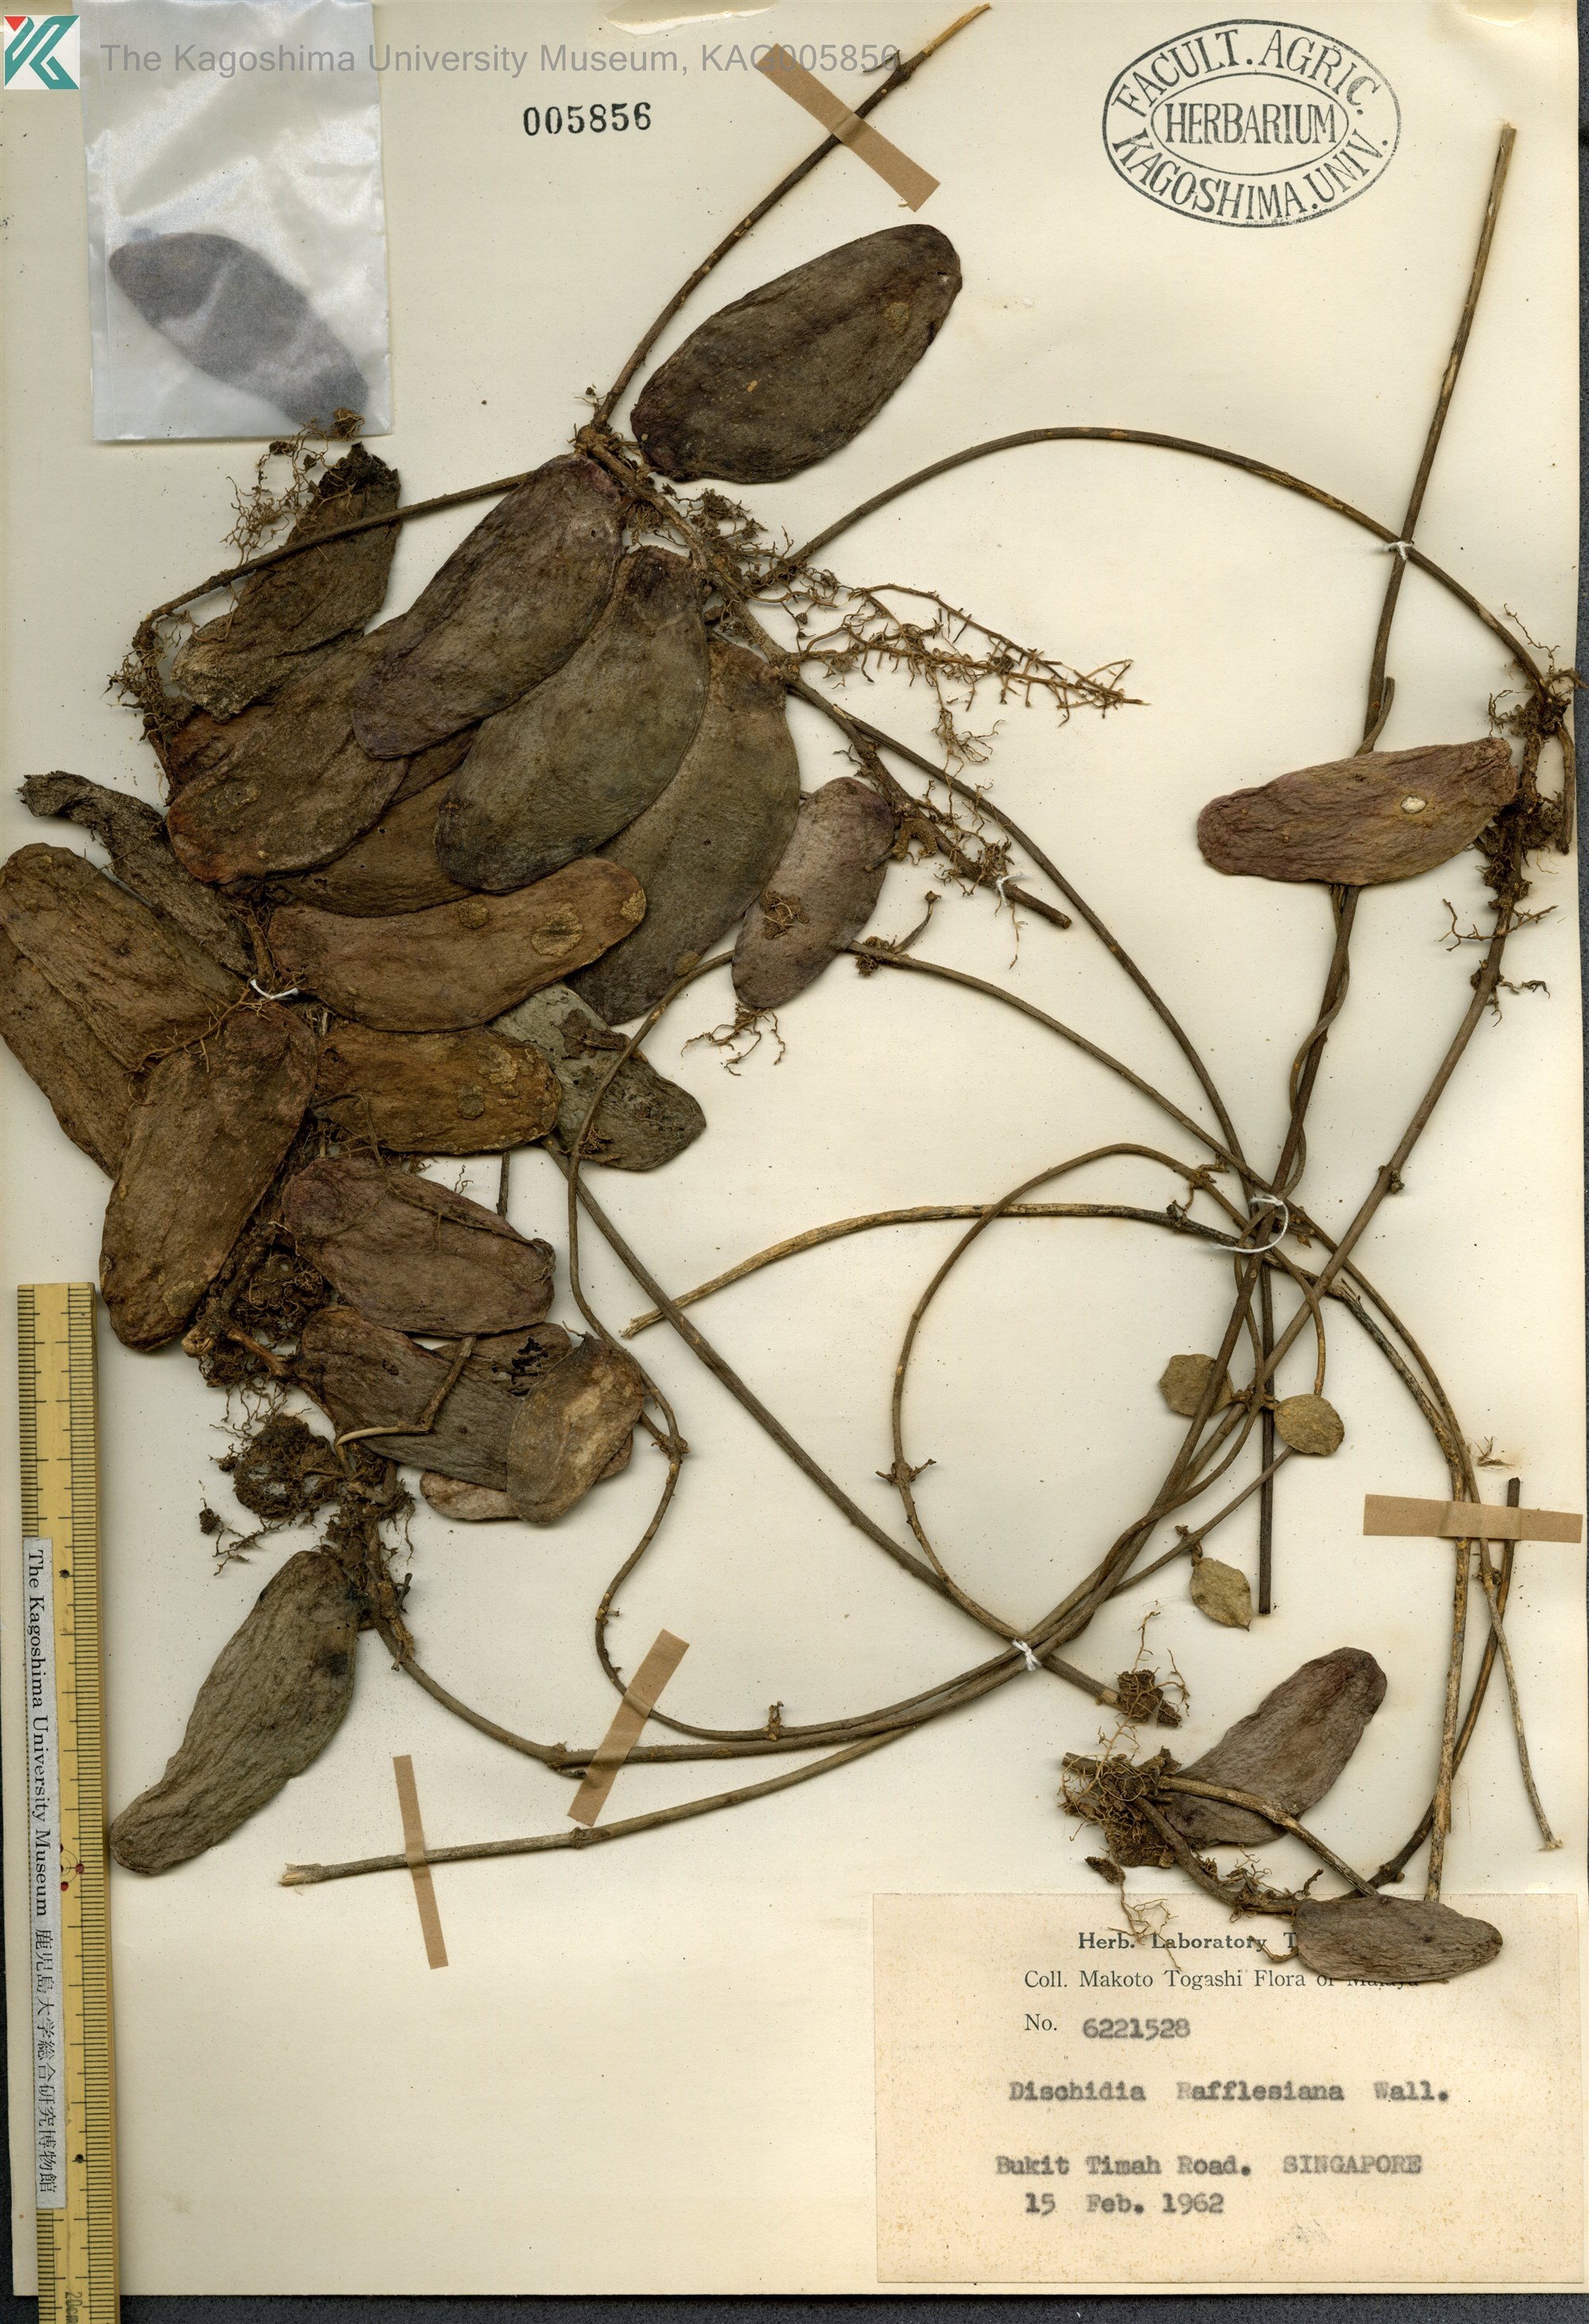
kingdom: Plantae
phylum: Tracheophyta
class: Magnoliopsida
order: Gentianales
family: Apocynaceae
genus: Dischidia
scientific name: Dischidia major
